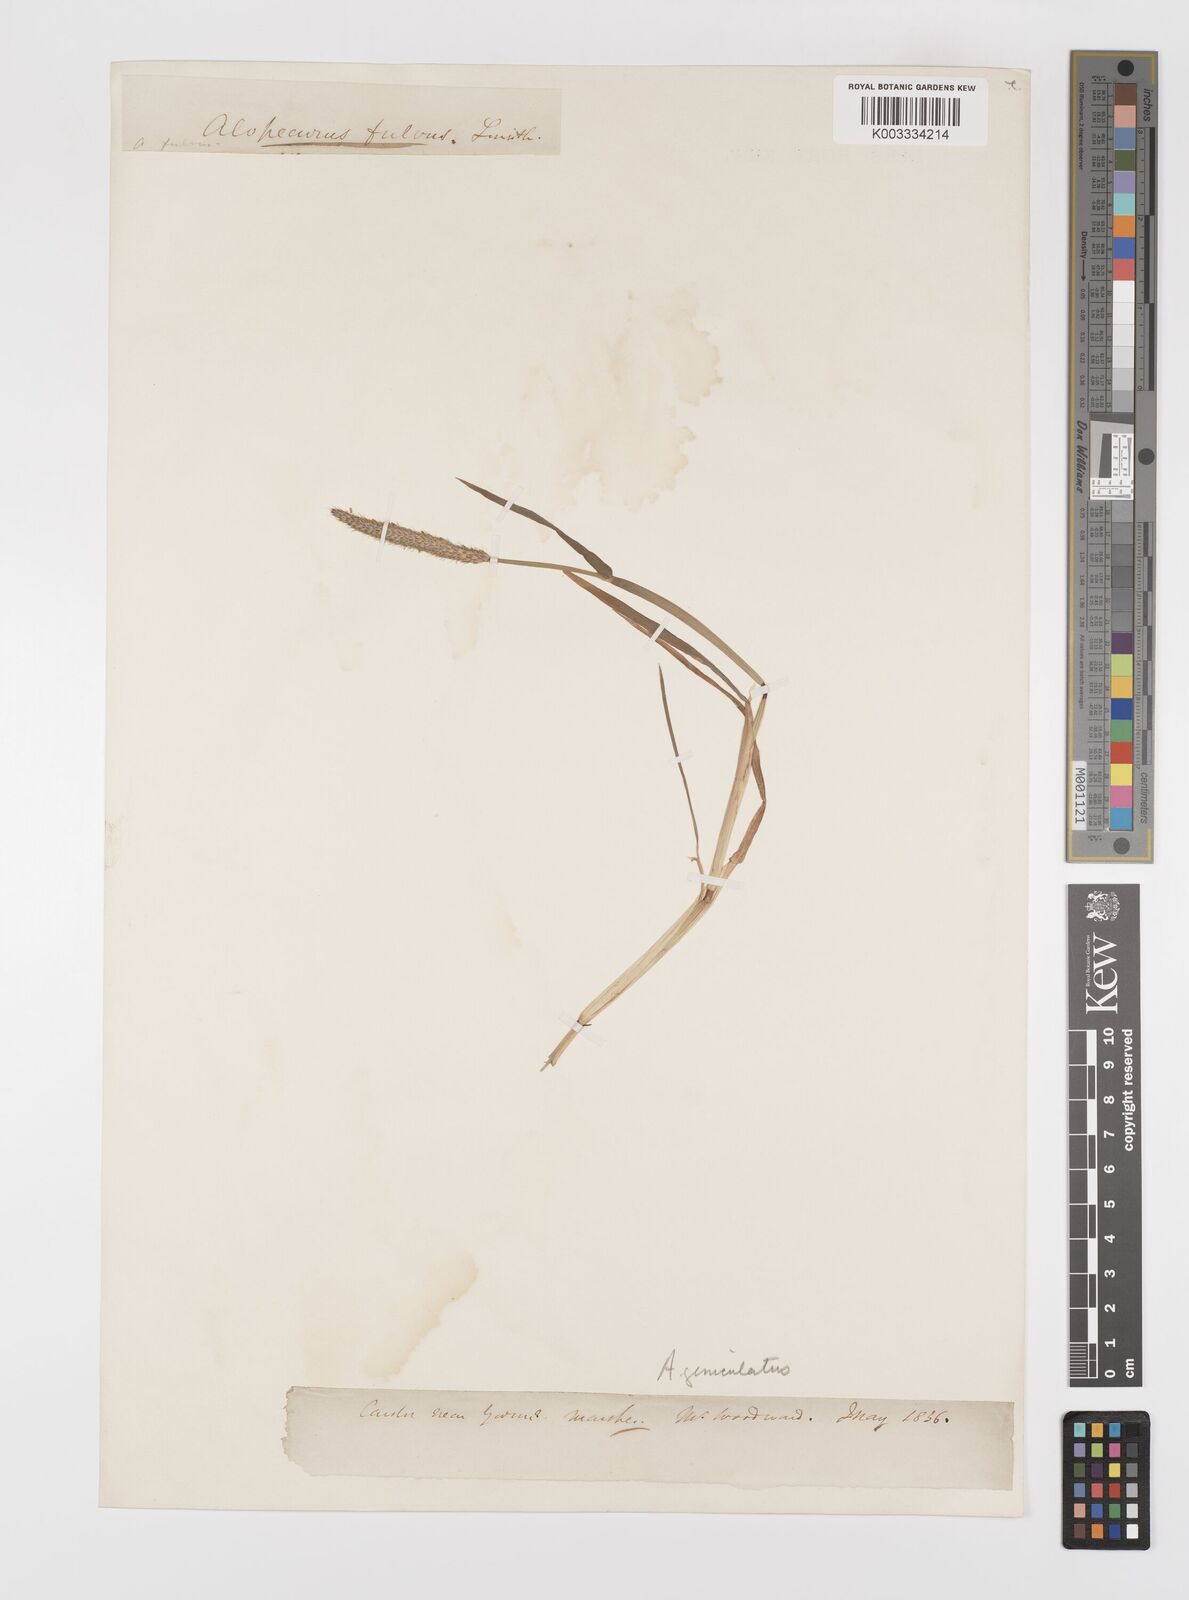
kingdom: Plantae
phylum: Tracheophyta
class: Liliopsida
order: Poales
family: Poaceae
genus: Alopecurus
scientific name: Alopecurus geniculatus
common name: Water foxtail
